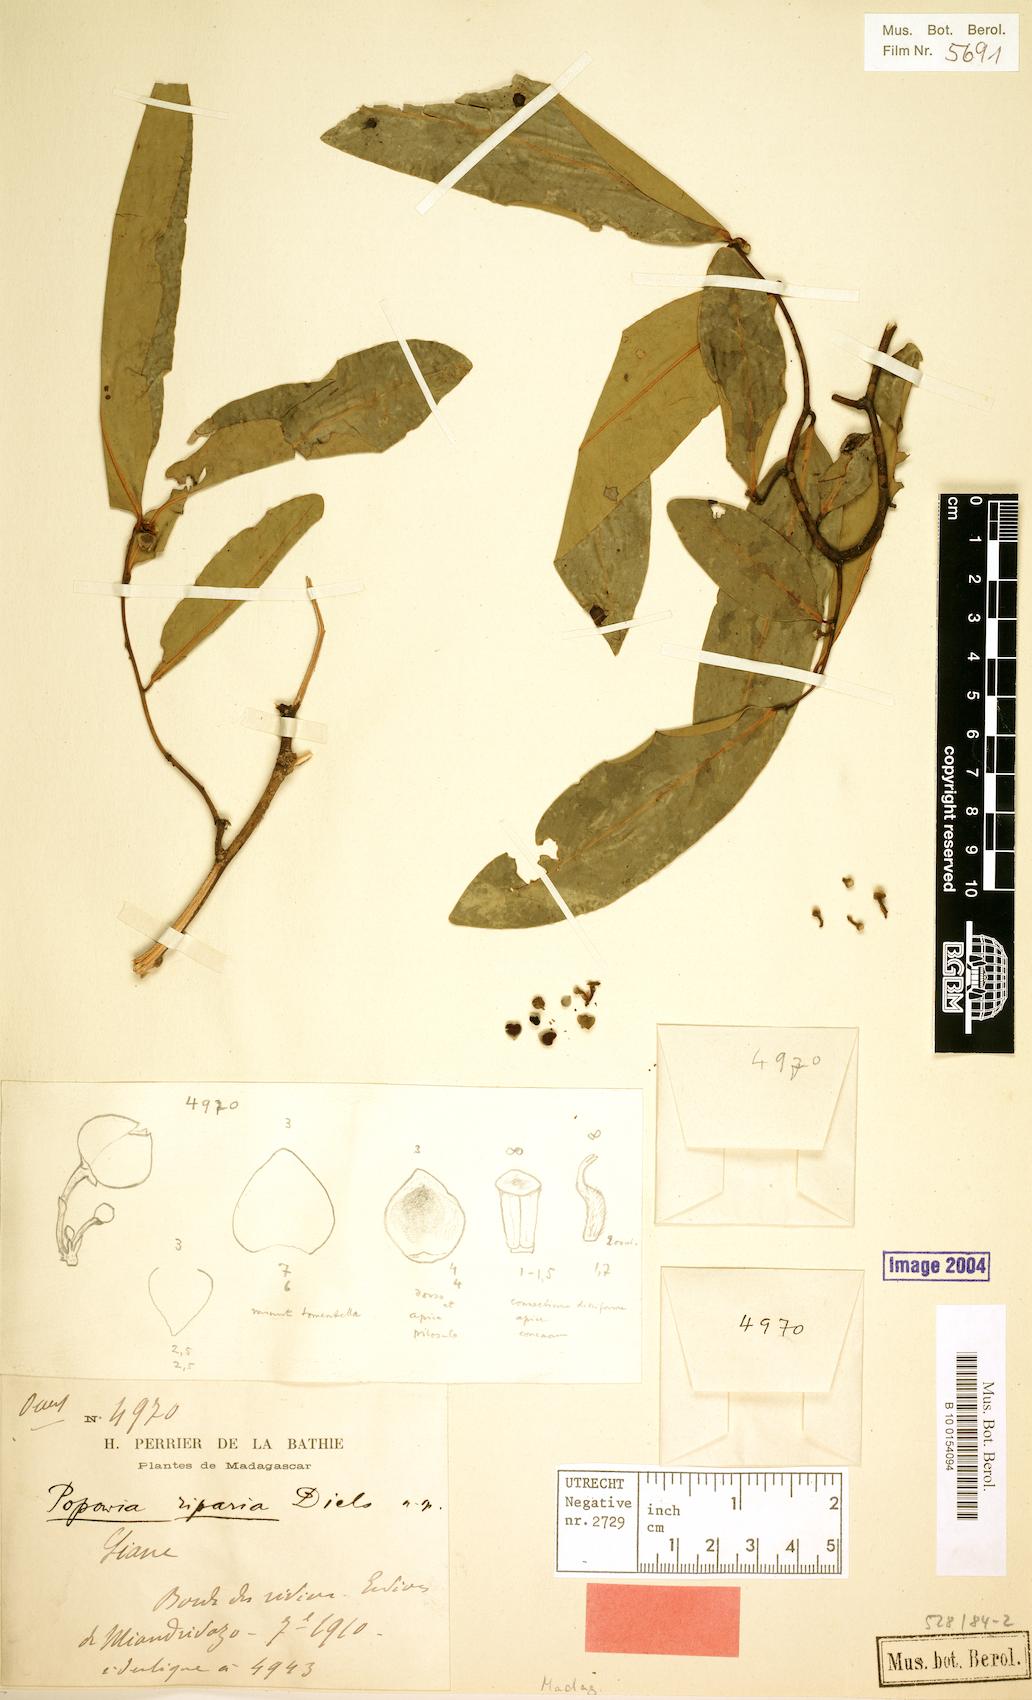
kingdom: Plantae
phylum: Tracheophyta
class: Magnoliopsida
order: Magnoliales
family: Annonaceae
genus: Popowia
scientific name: Popowia greveana
